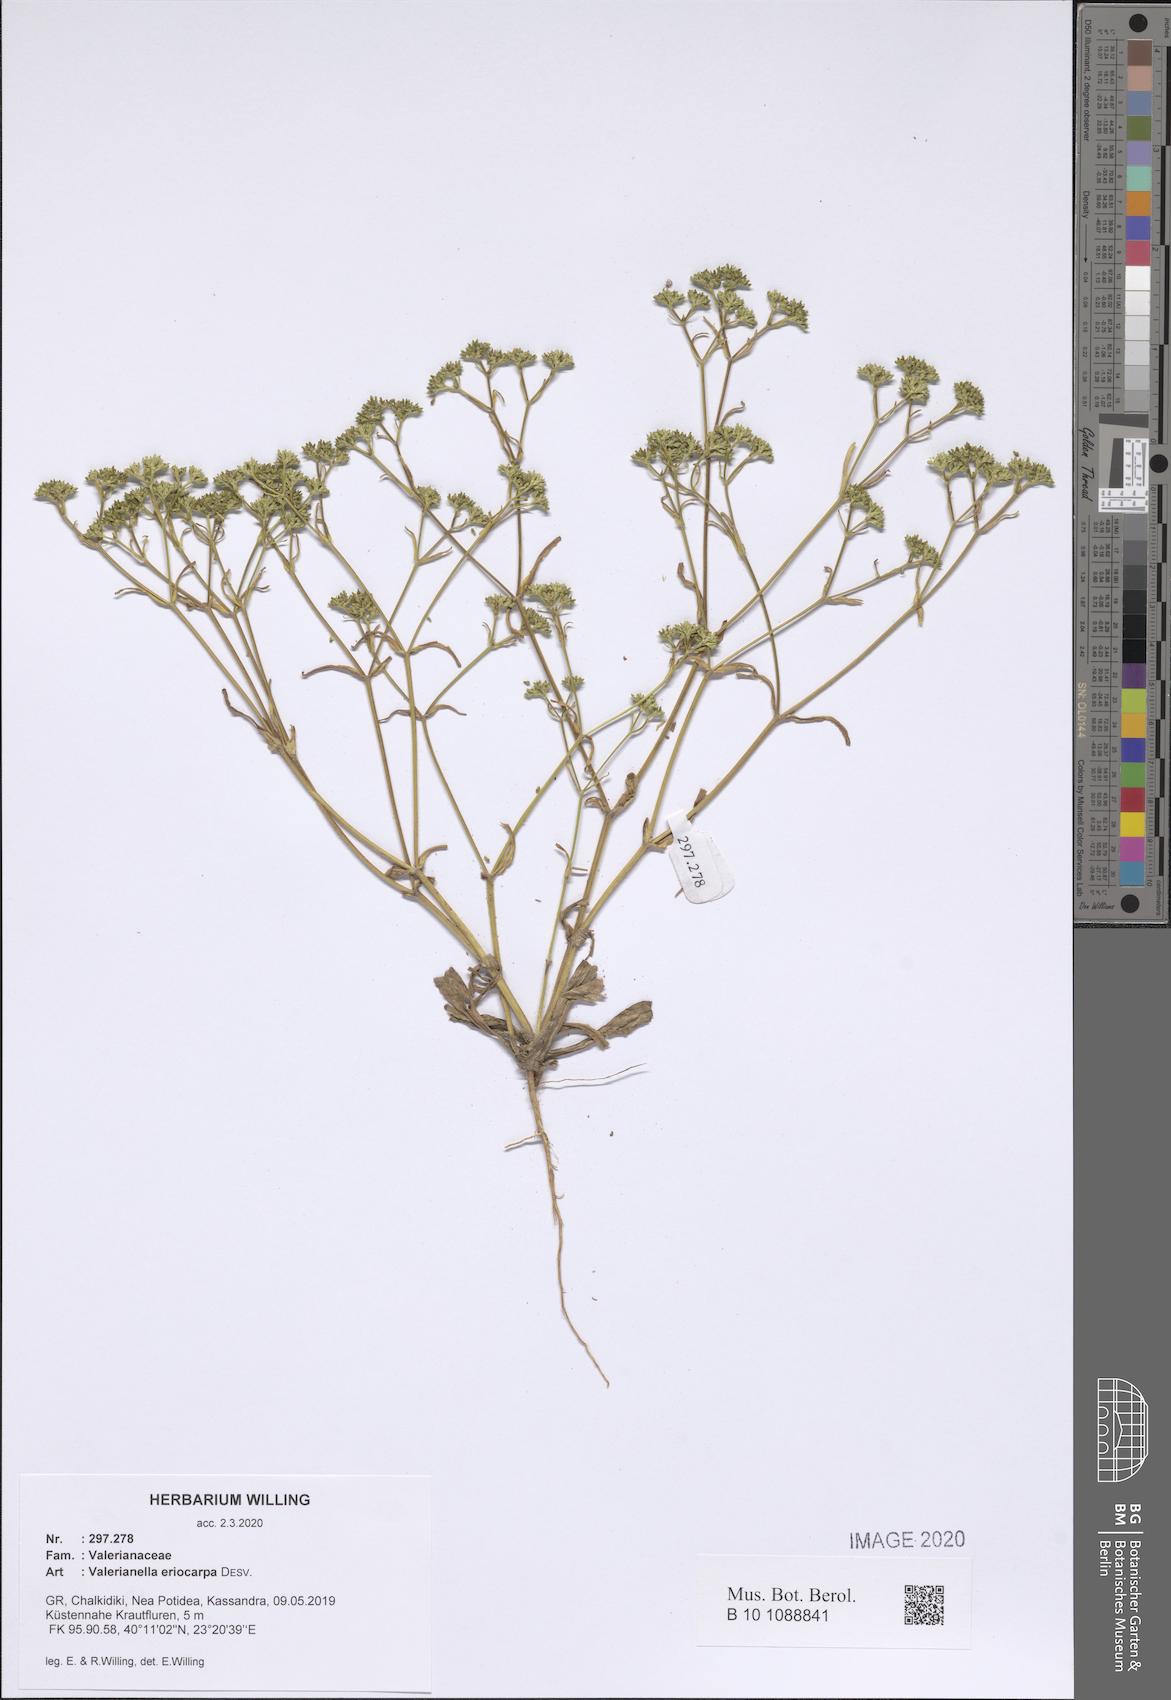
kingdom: Plantae
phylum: Tracheophyta
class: Magnoliopsida
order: Dipsacales
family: Caprifoliaceae
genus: Valerianella
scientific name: Valerianella eriocarpa
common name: Hairy-fruited cornsalad
